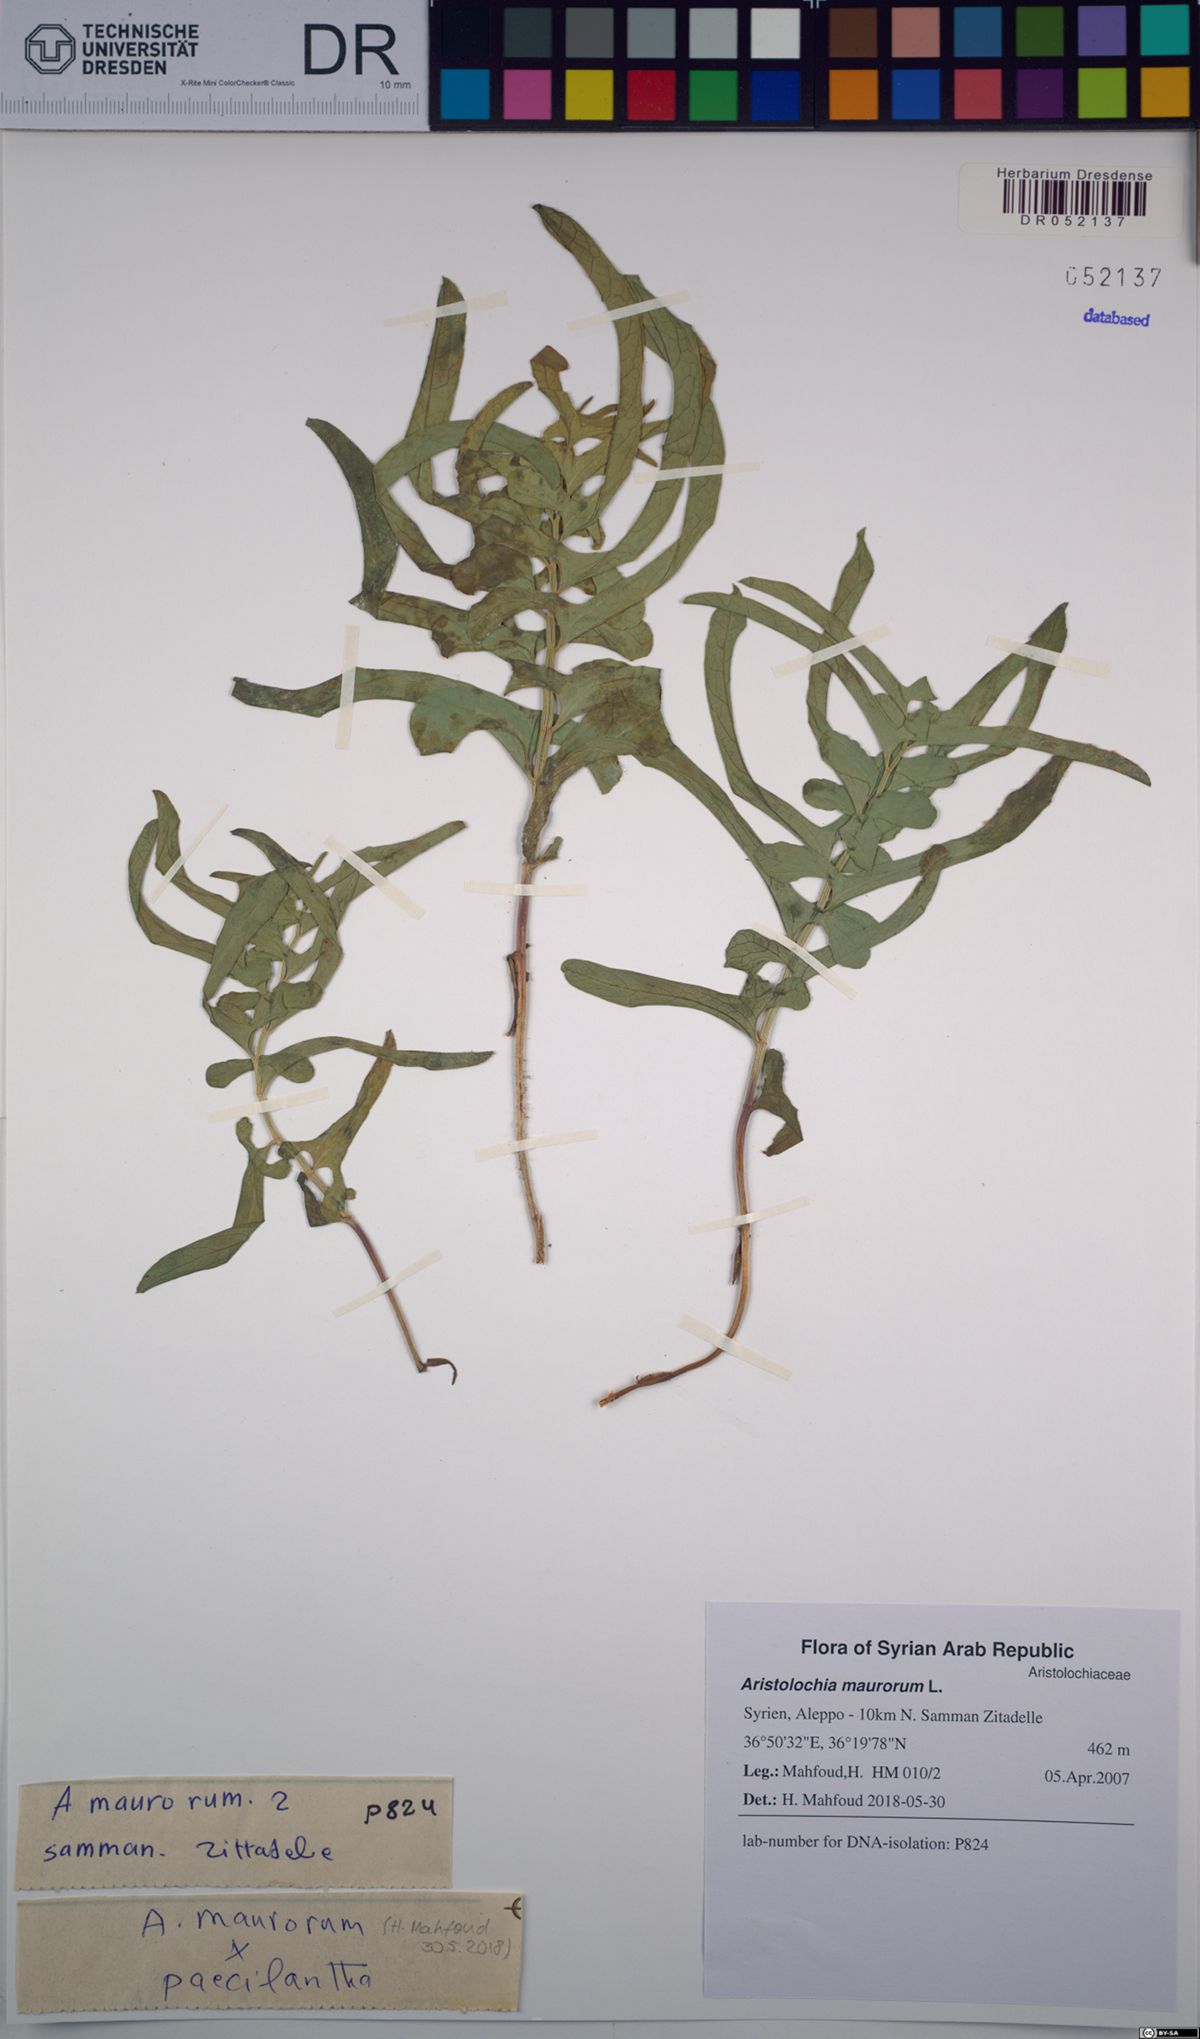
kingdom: Plantae
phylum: Tracheophyta
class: Magnoliopsida
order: Piperales
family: Aristolochiaceae
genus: Aristolochia
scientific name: Aristolochia maurorum
